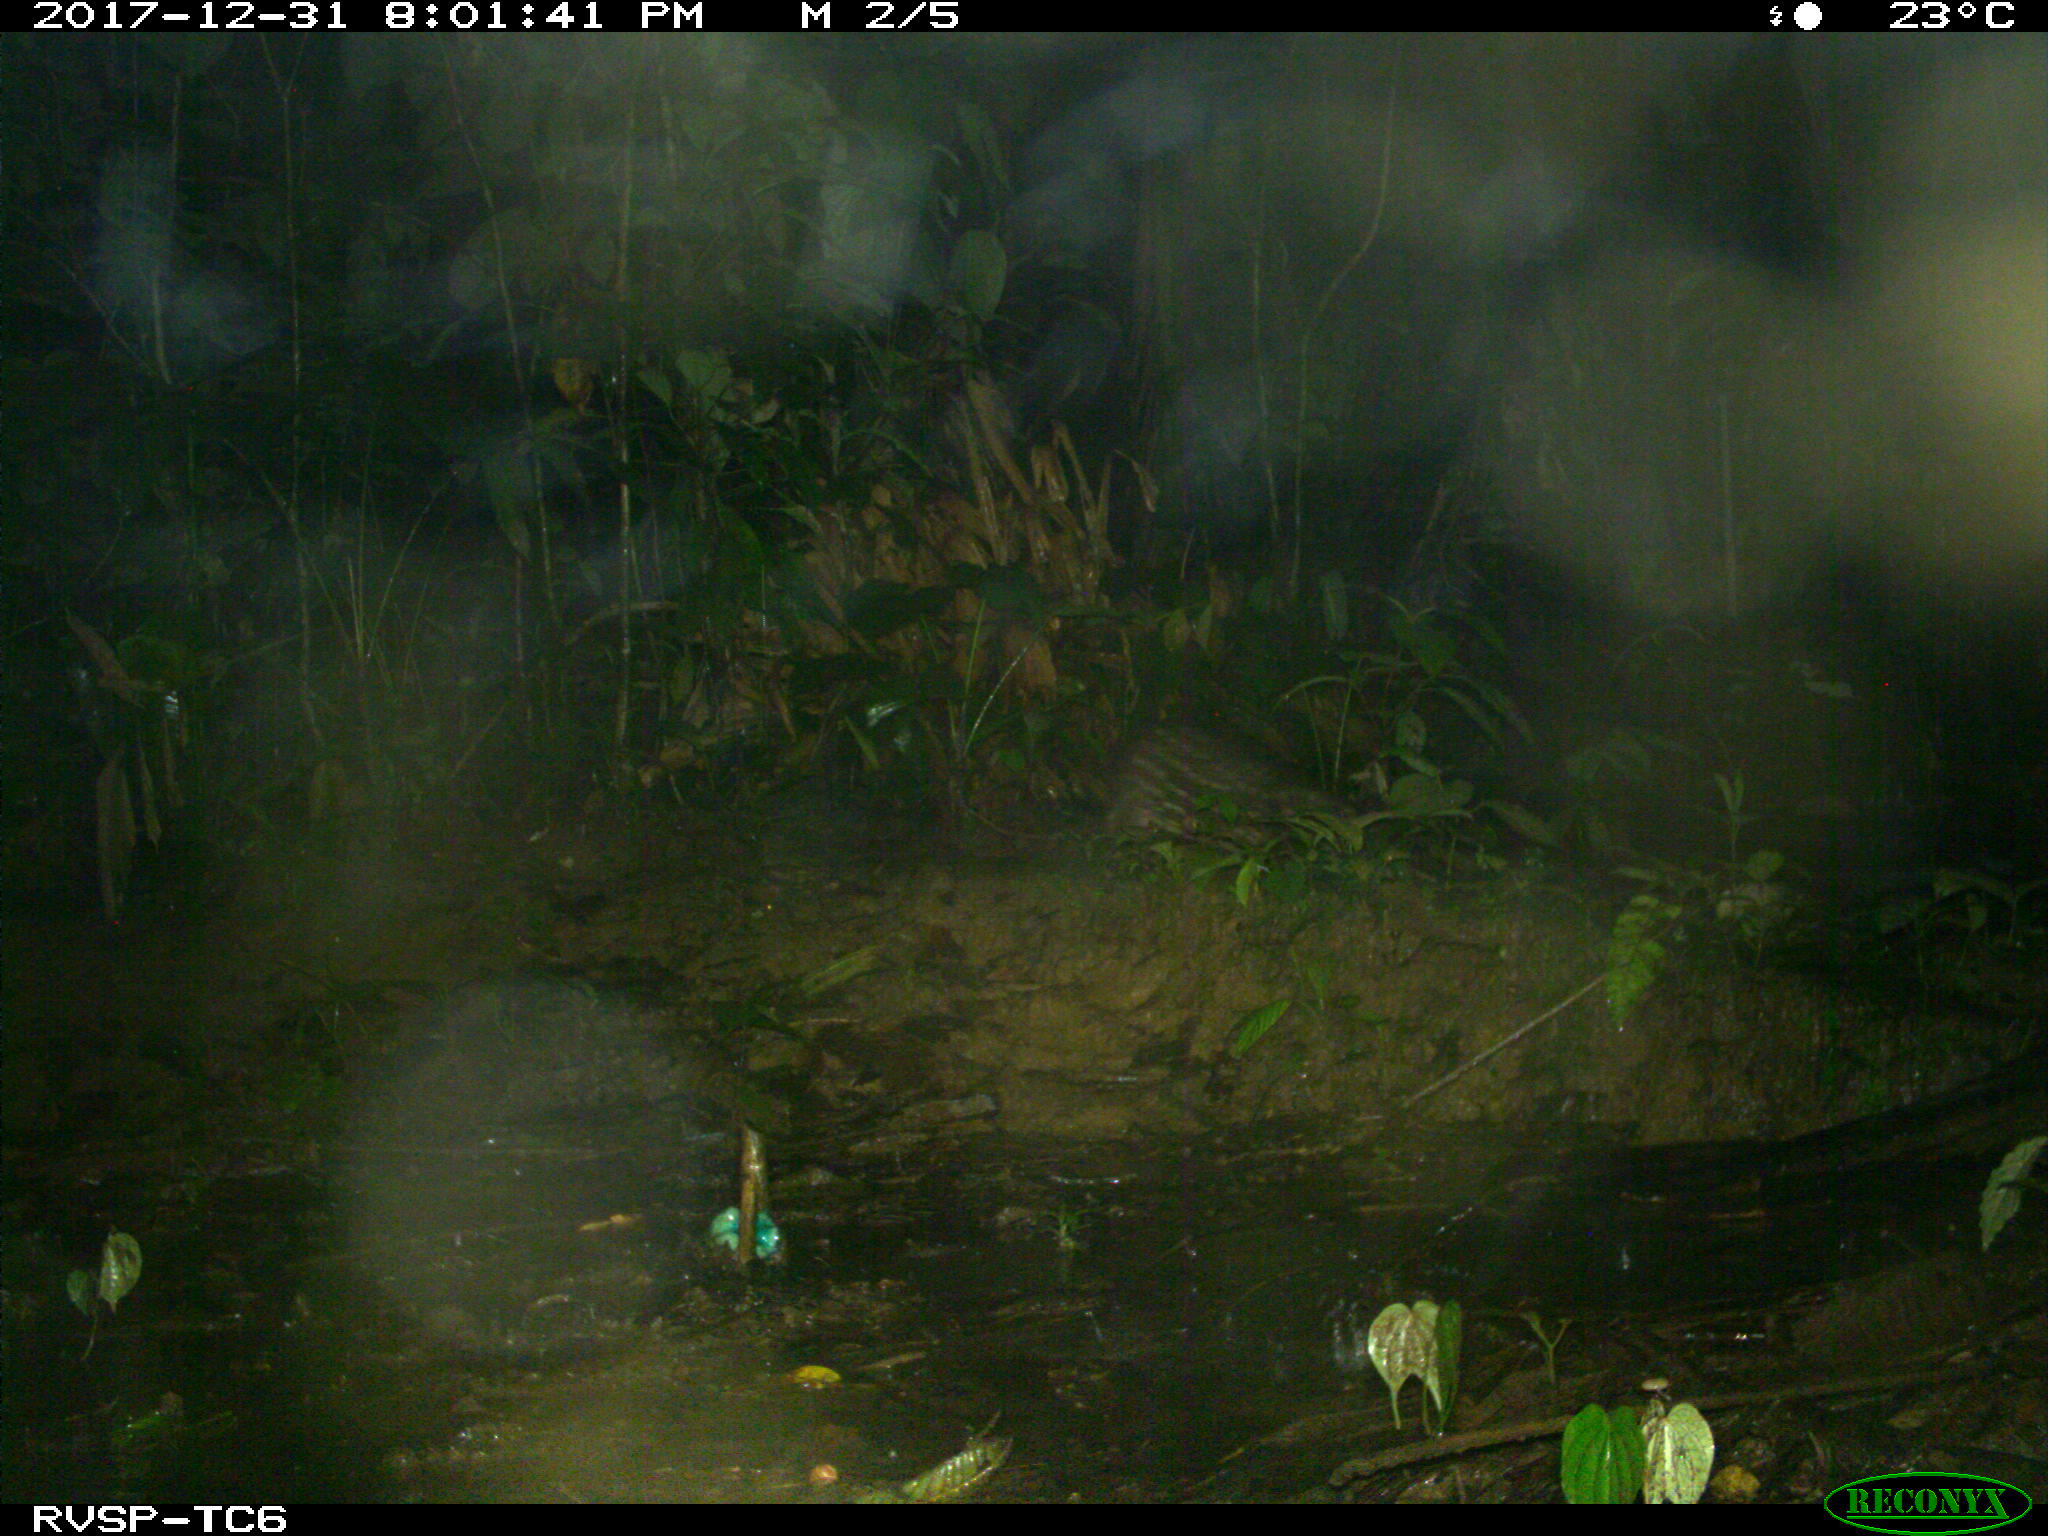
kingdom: Animalia
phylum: Chordata
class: Mammalia
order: Rodentia
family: Cuniculidae
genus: Cuniculus
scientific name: Cuniculus paca
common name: Lowland paca
